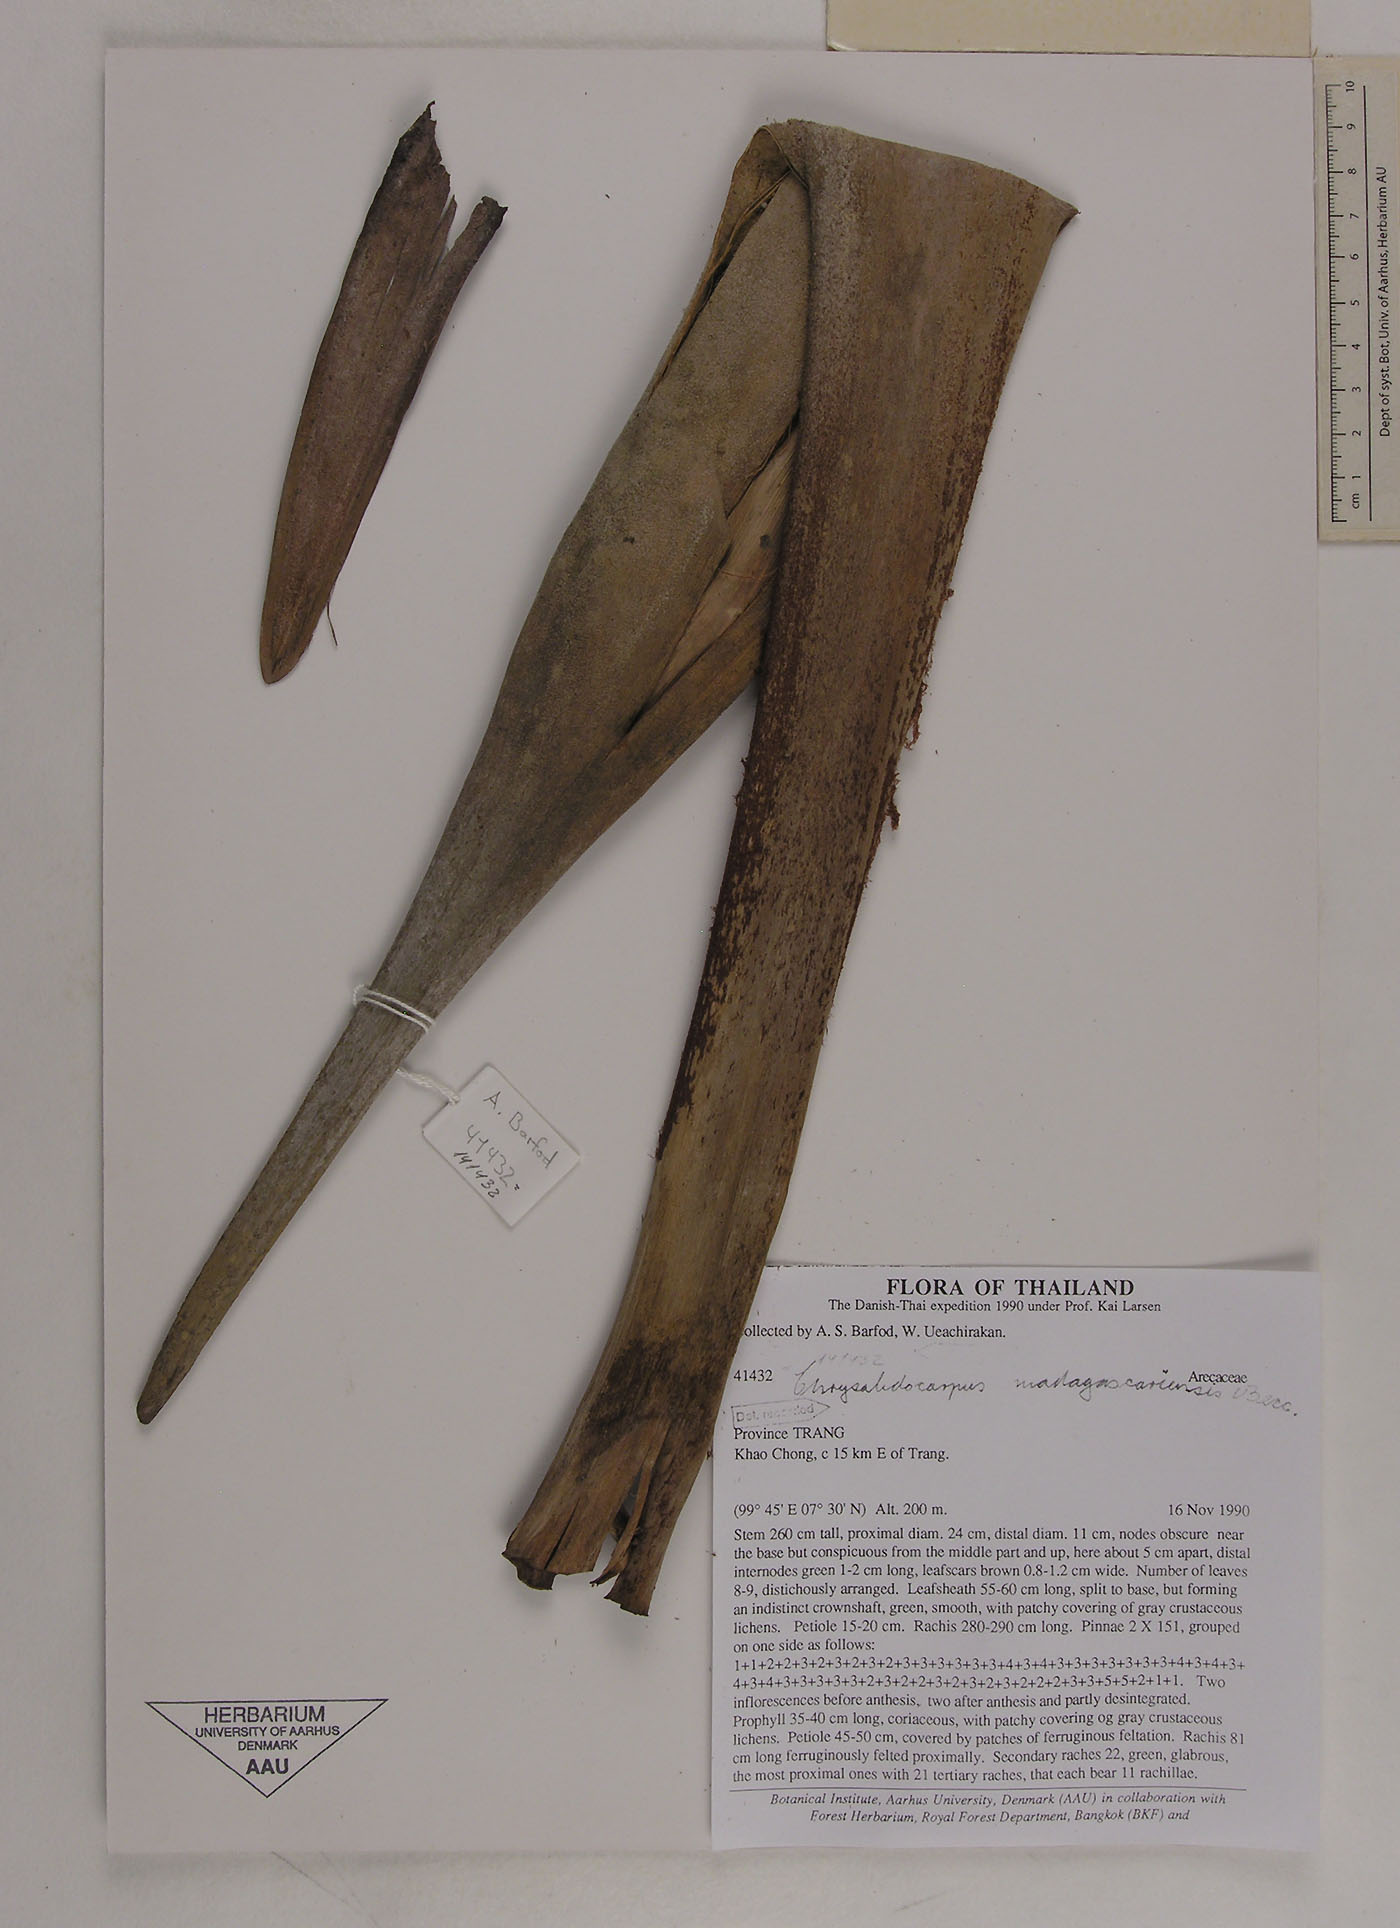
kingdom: Plantae
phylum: Tracheophyta
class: Liliopsida
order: Arecales
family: Arecaceae
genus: Dypsis
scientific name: Dypsis madagascariensis
